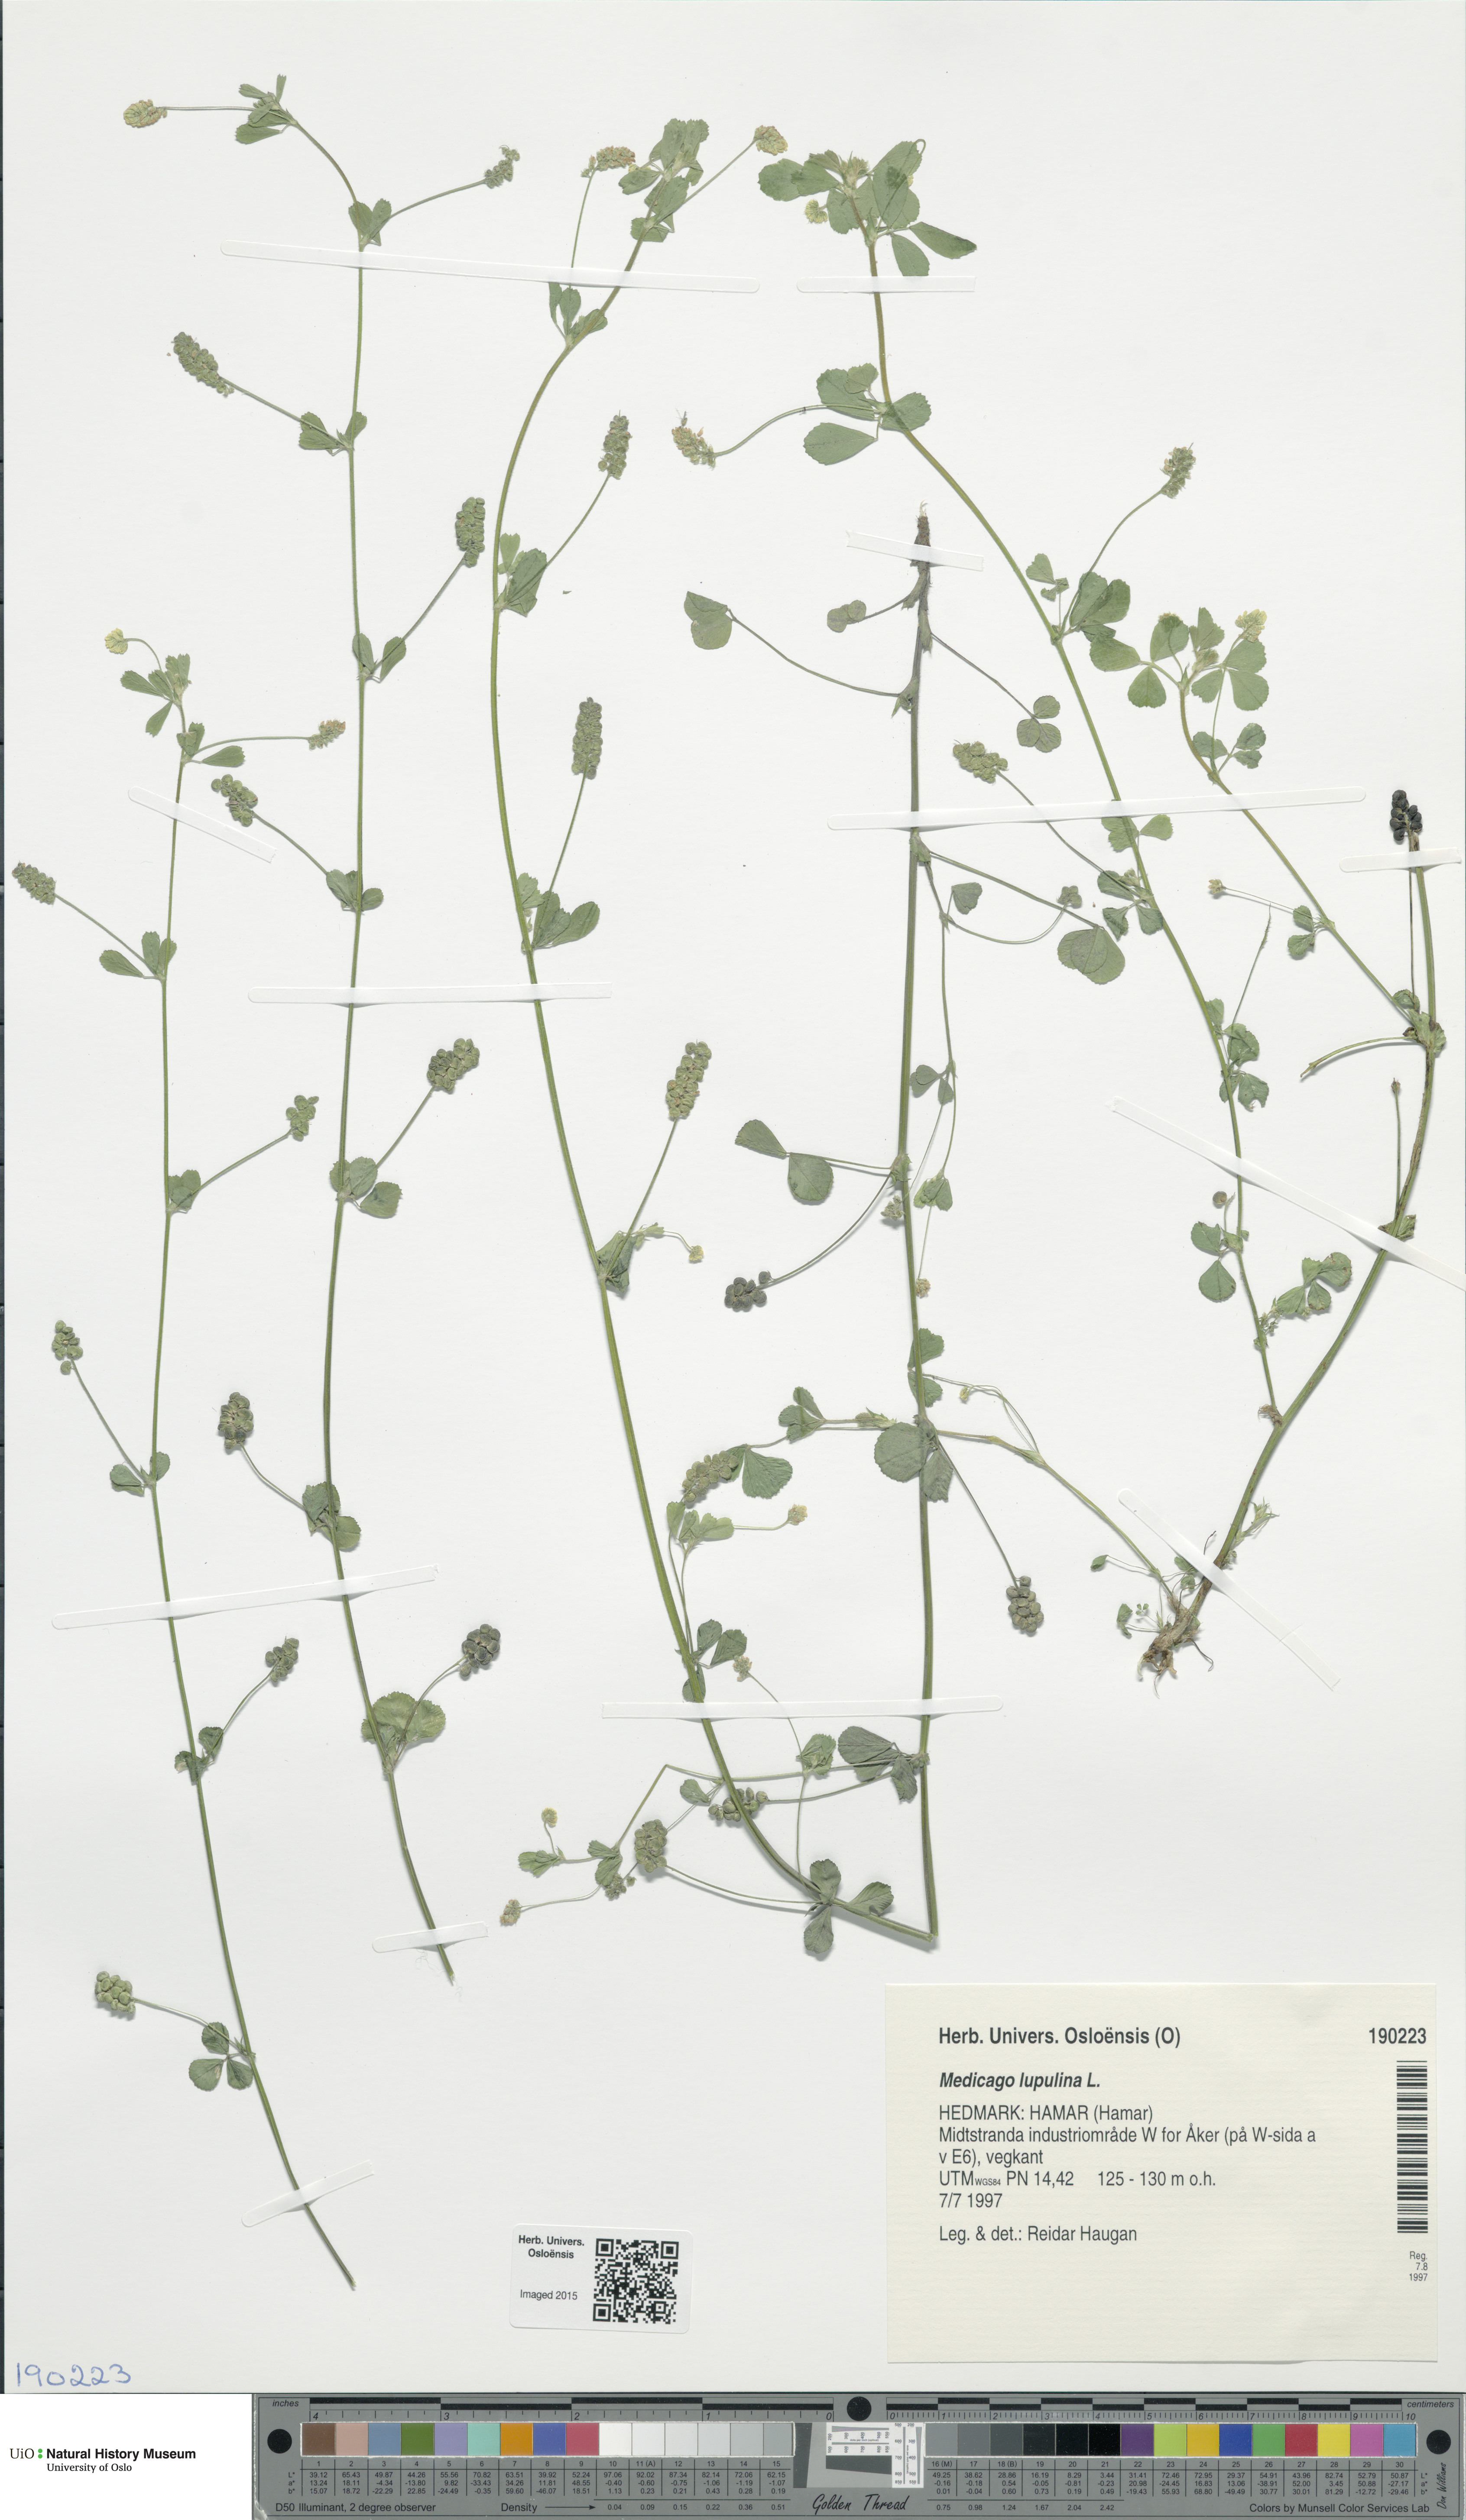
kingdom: Plantae
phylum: Tracheophyta
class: Magnoliopsida
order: Fabales
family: Fabaceae
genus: Medicago
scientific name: Medicago lupulina
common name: Black medick
